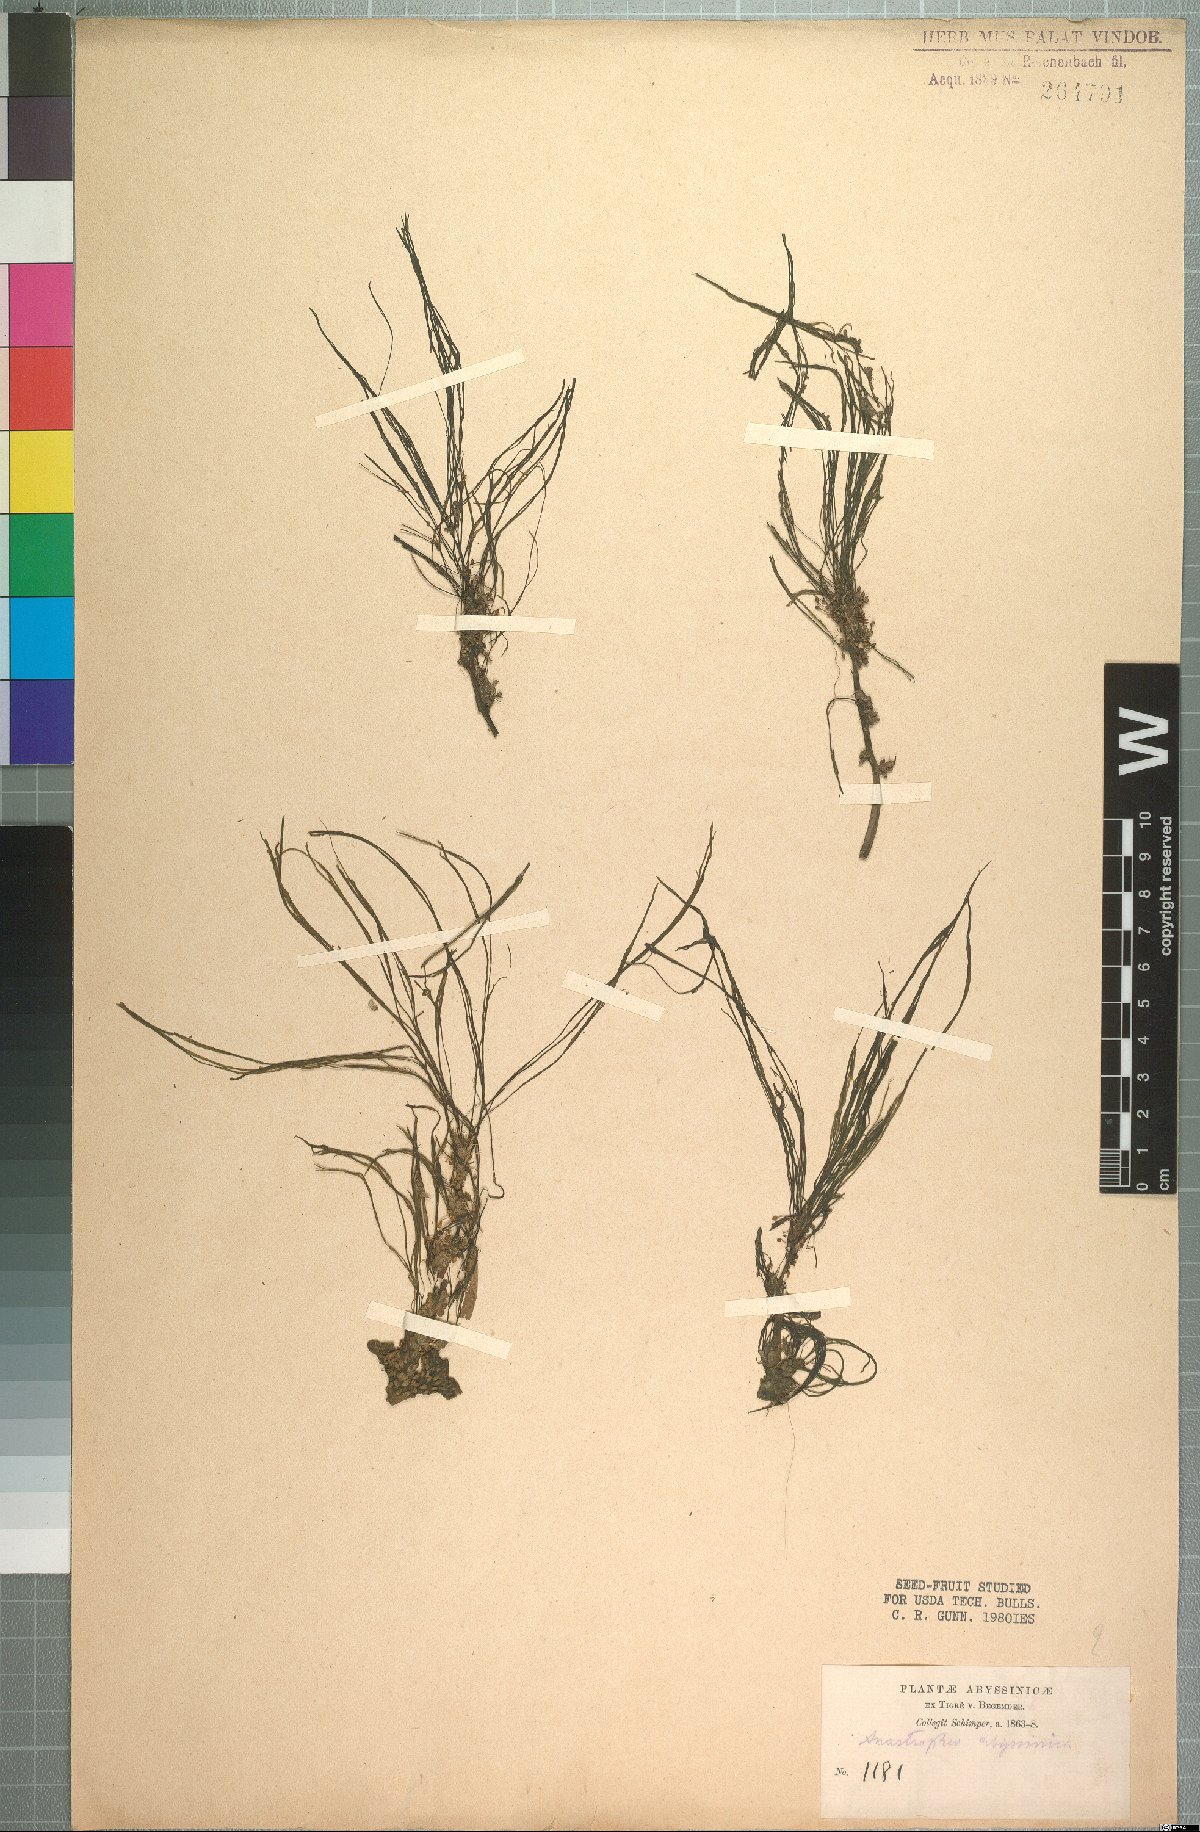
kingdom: Plantae
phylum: Tracheophyta
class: Magnoliopsida
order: Malpighiales
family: Podostemaceae
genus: Sphaerothylax
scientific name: Sphaerothylax abyssinica
